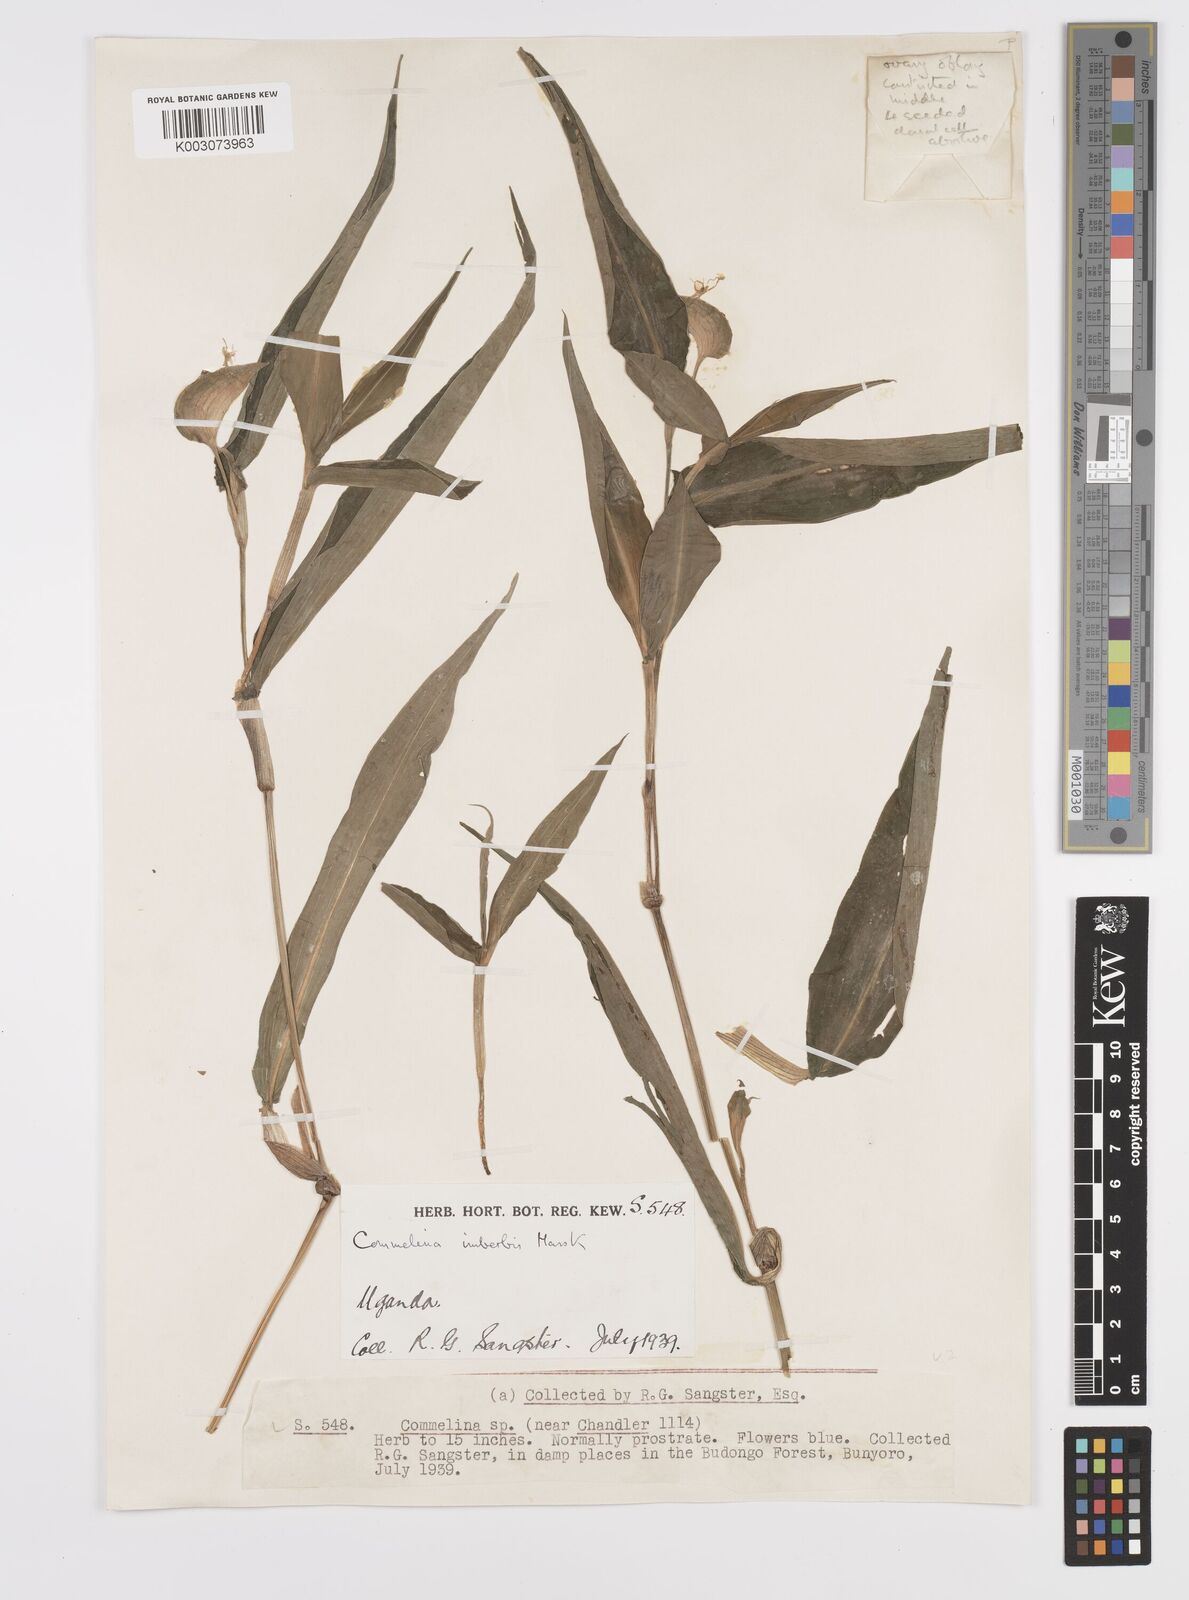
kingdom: Plantae
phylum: Tracheophyta
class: Liliopsida
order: Commelinales
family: Commelinaceae
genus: Commelina
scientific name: Commelina imberbis
